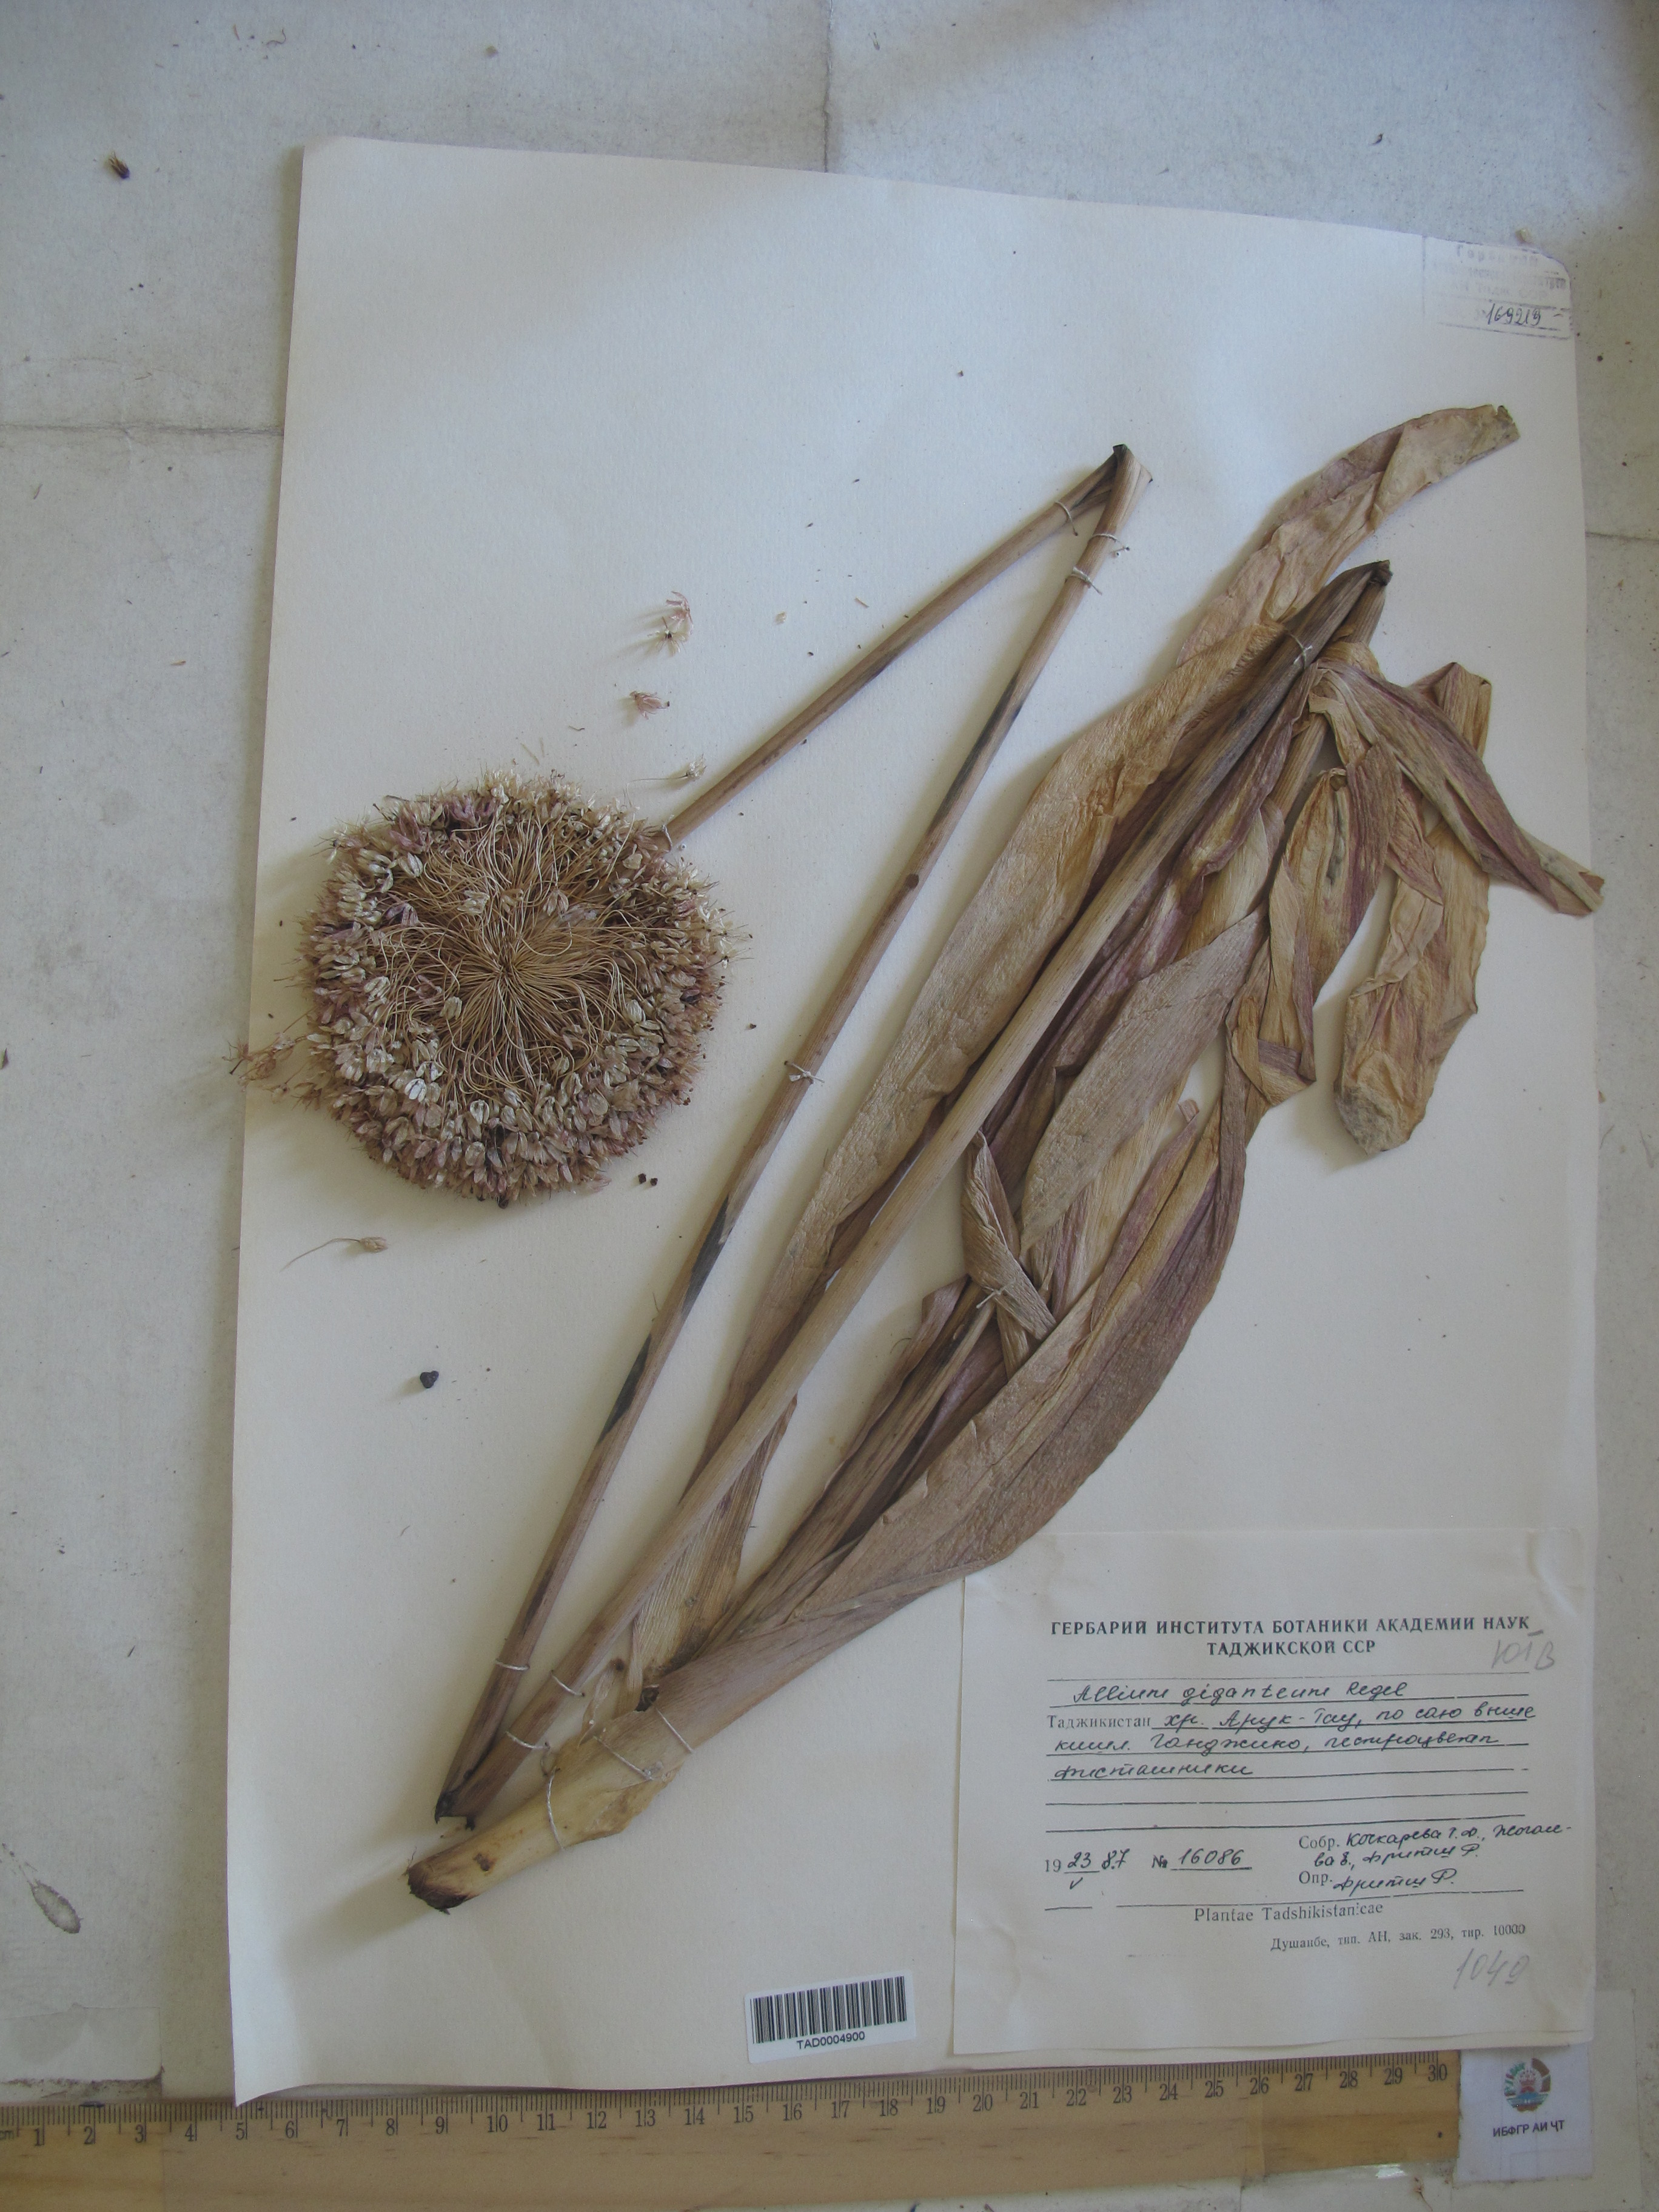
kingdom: Plantae
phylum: Tracheophyta
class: Liliopsida
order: Asparagales
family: Amaryllidaceae
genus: Allium
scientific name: Allium giganteum
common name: Giant onion
